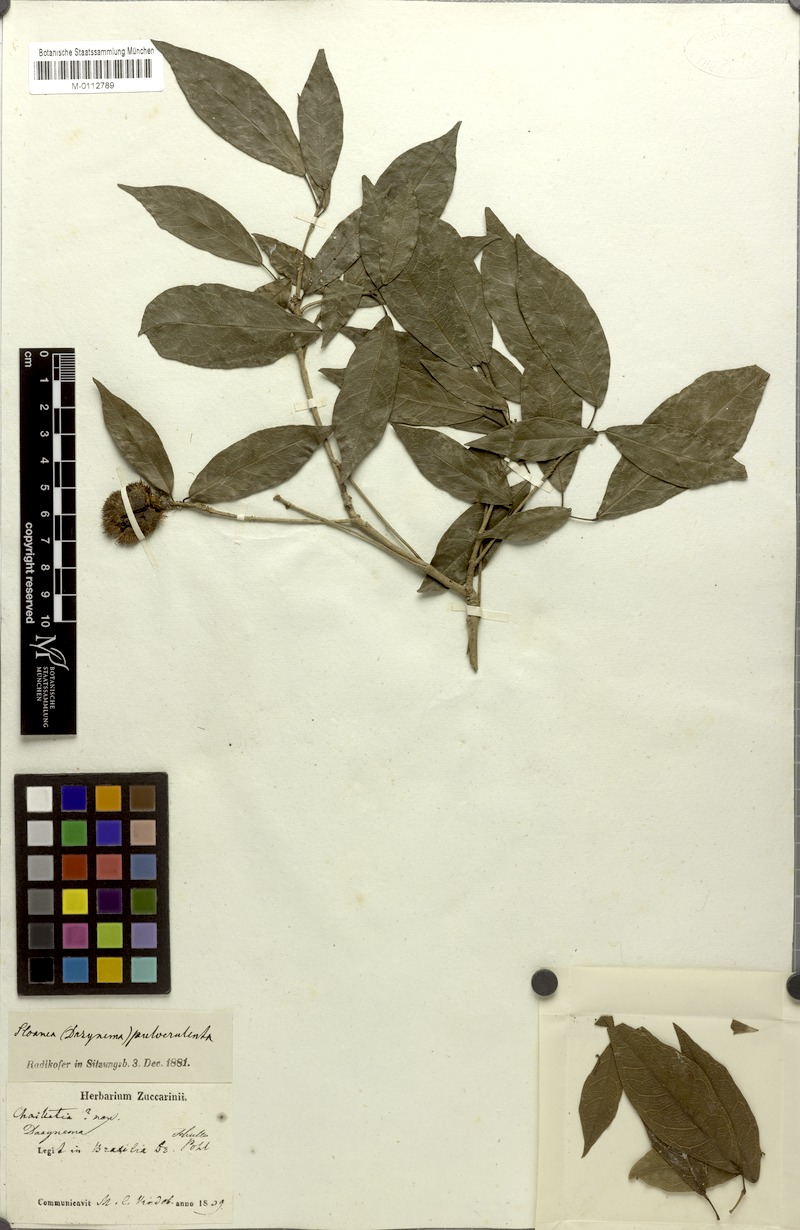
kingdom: Plantae
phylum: Tracheophyta
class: Magnoliopsida
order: Oxalidales
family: Elaeocarpaceae
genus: Sloanea
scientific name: Sloanea hirsuta
